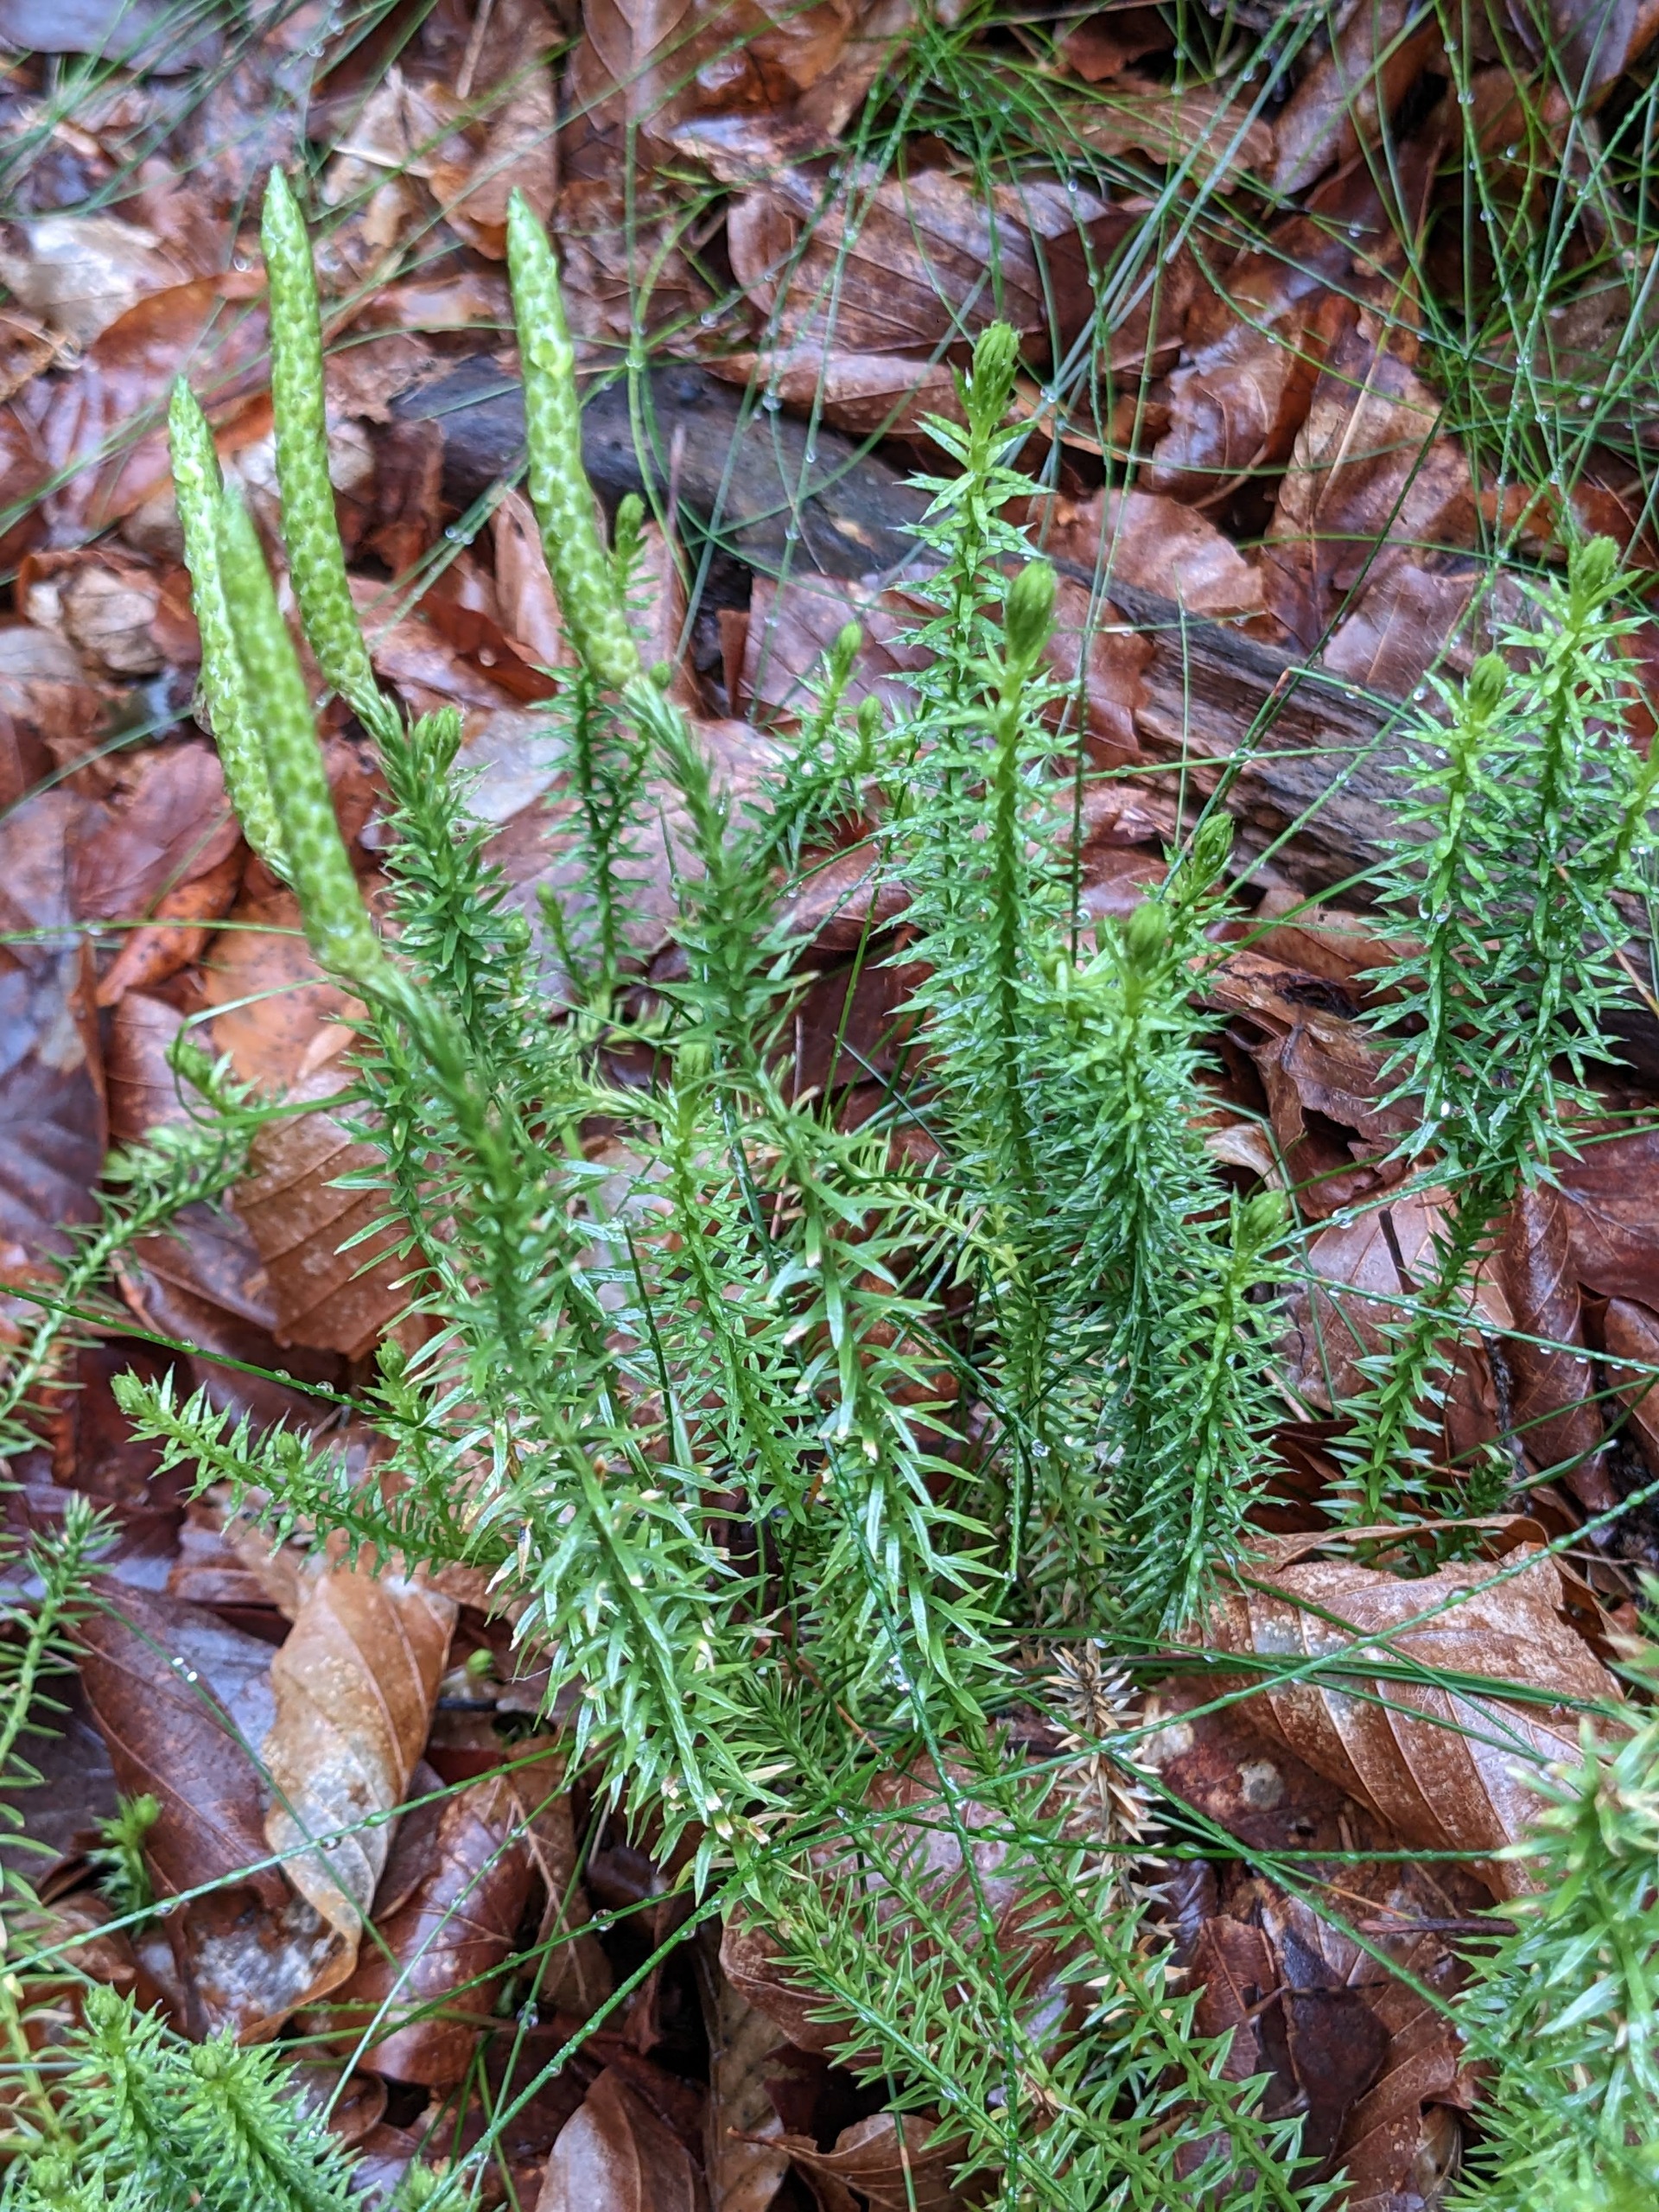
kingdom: Plantae
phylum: Tracheophyta
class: Lycopodiopsida
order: Lycopodiales
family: Lycopodiaceae
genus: Spinulum
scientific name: Spinulum annotinum
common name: Femradet ulvefod
